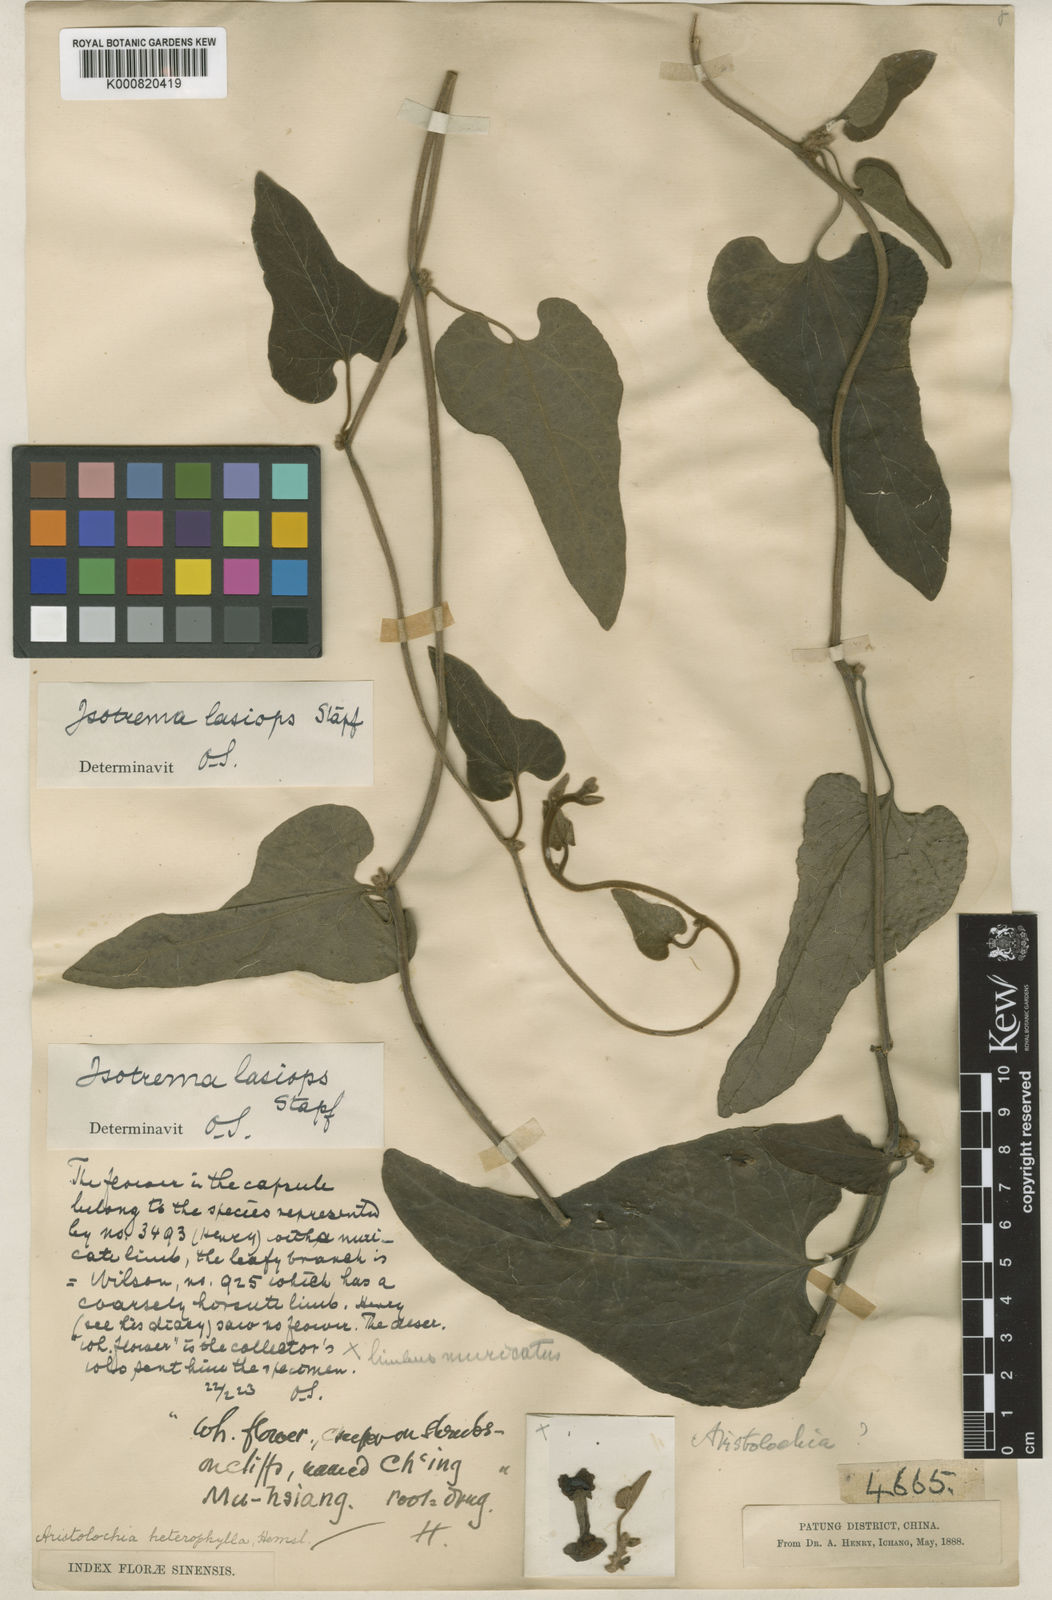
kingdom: Plantae
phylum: Tracheophyta
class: Magnoliopsida
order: Piperales
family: Aristolochiaceae
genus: Isotrema
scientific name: Isotrema kaempferi
